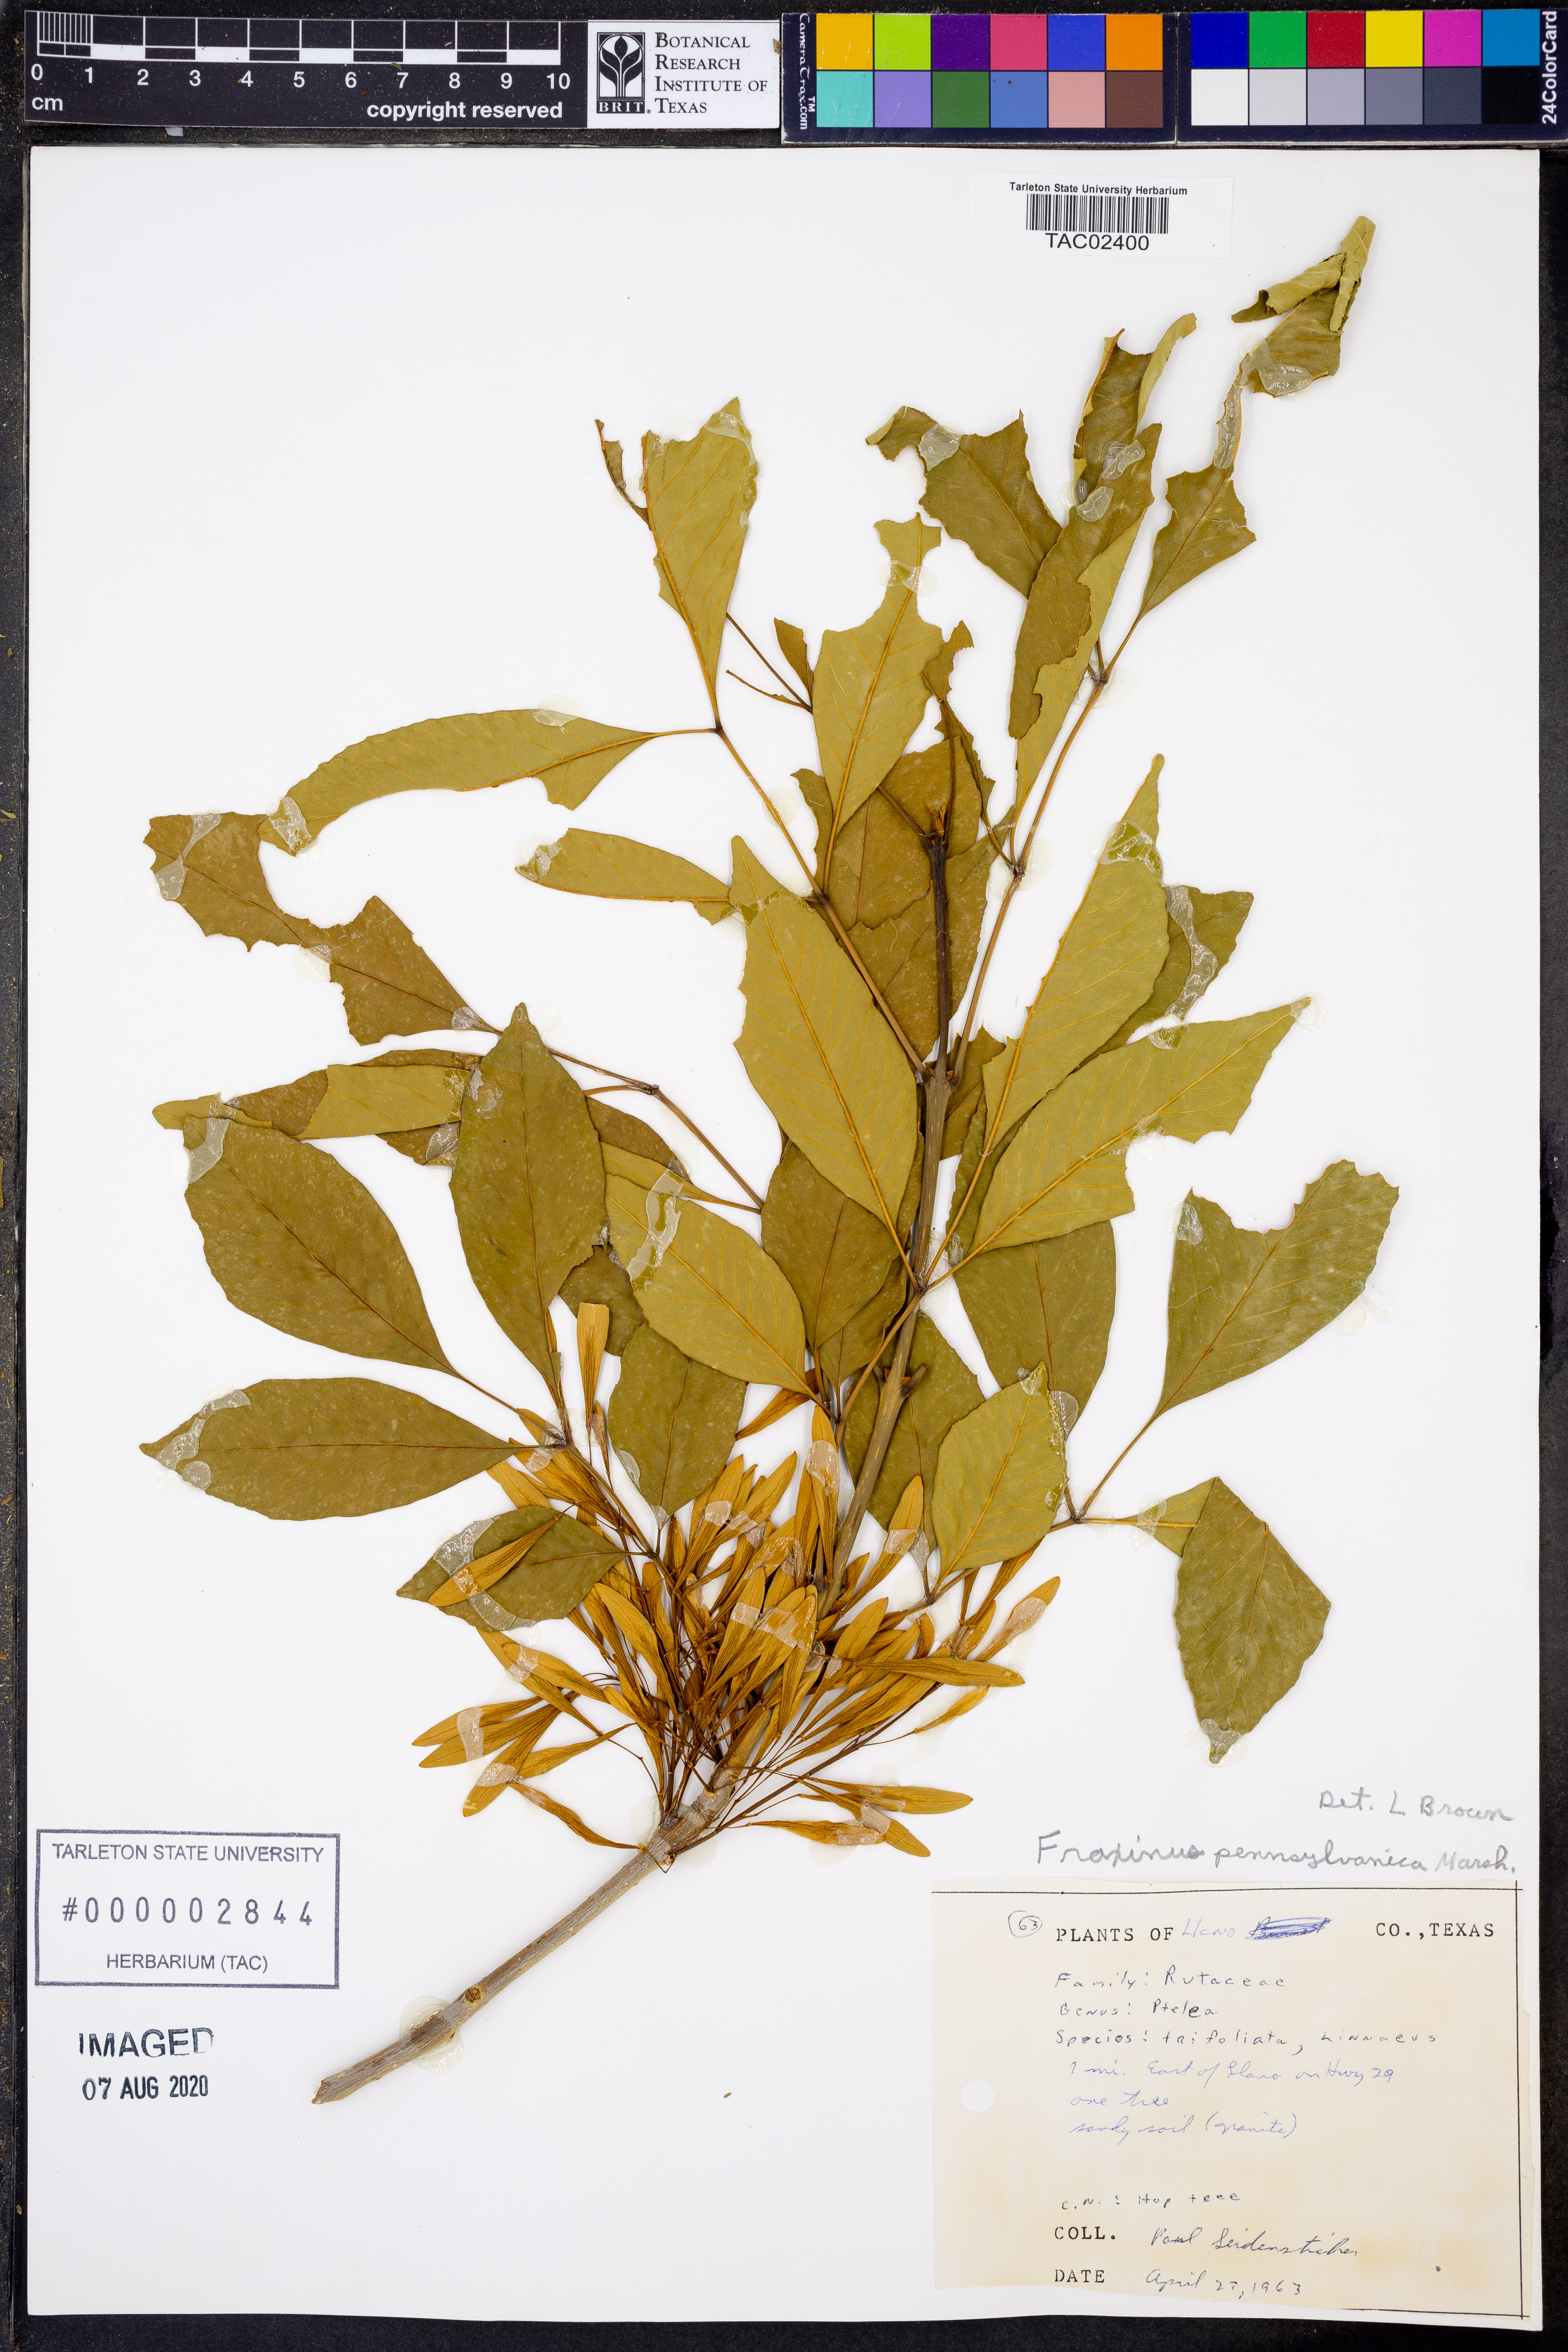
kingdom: Plantae
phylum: Tracheophyta
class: Magnoliopsida
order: Lamiales
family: Oleaceae
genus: Fraxinus
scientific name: Fraxinus pennsylvanica
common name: Green ash
